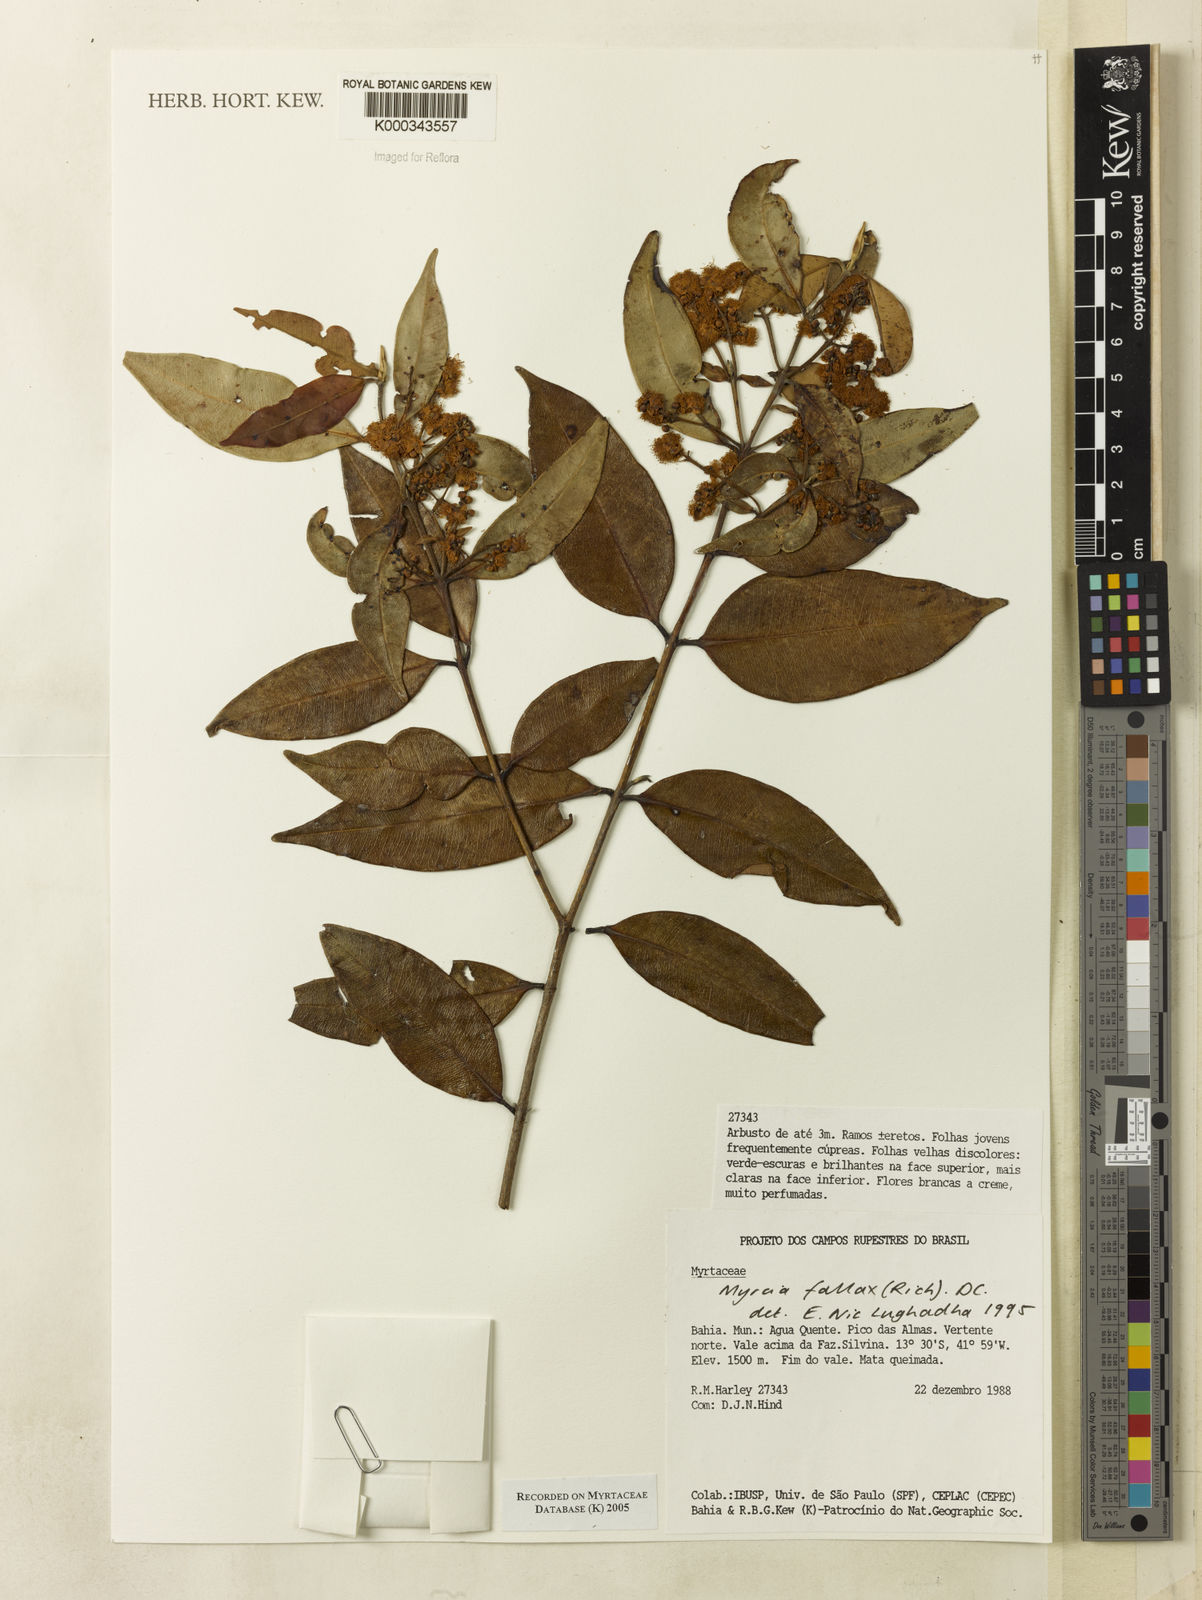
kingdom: Plantae
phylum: Tracheophyta
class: Magnoliopsida
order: Myrtales
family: Myrtaceae
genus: Myrcia
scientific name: Myrcia splendens
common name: Surinam cherry
